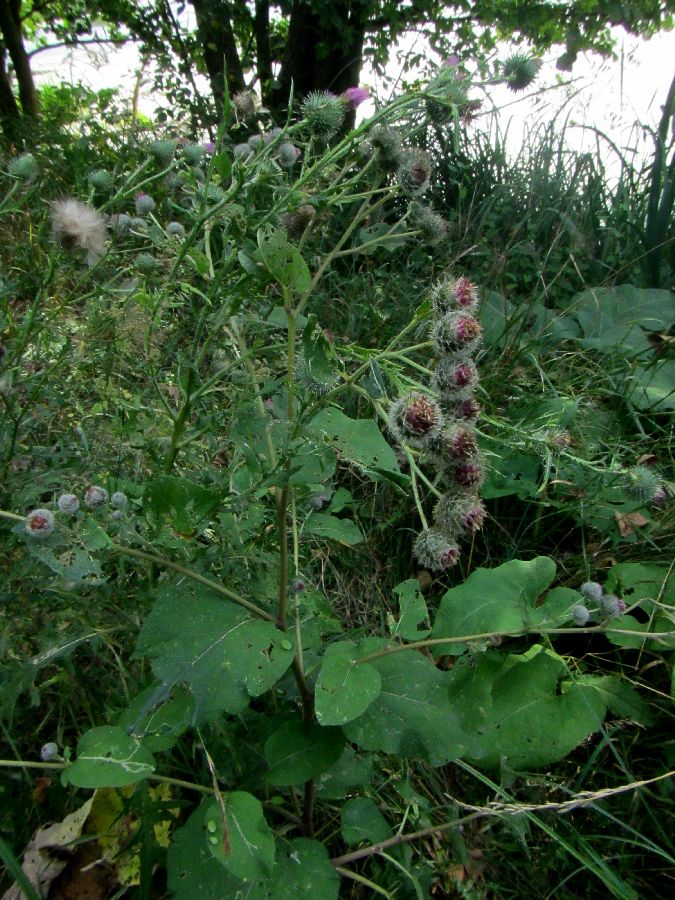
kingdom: Plantae
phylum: Tracheophyta
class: Magnoliopsida
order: Asterales
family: Asteraceae
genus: Arctium
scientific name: Arctium tomentosum
